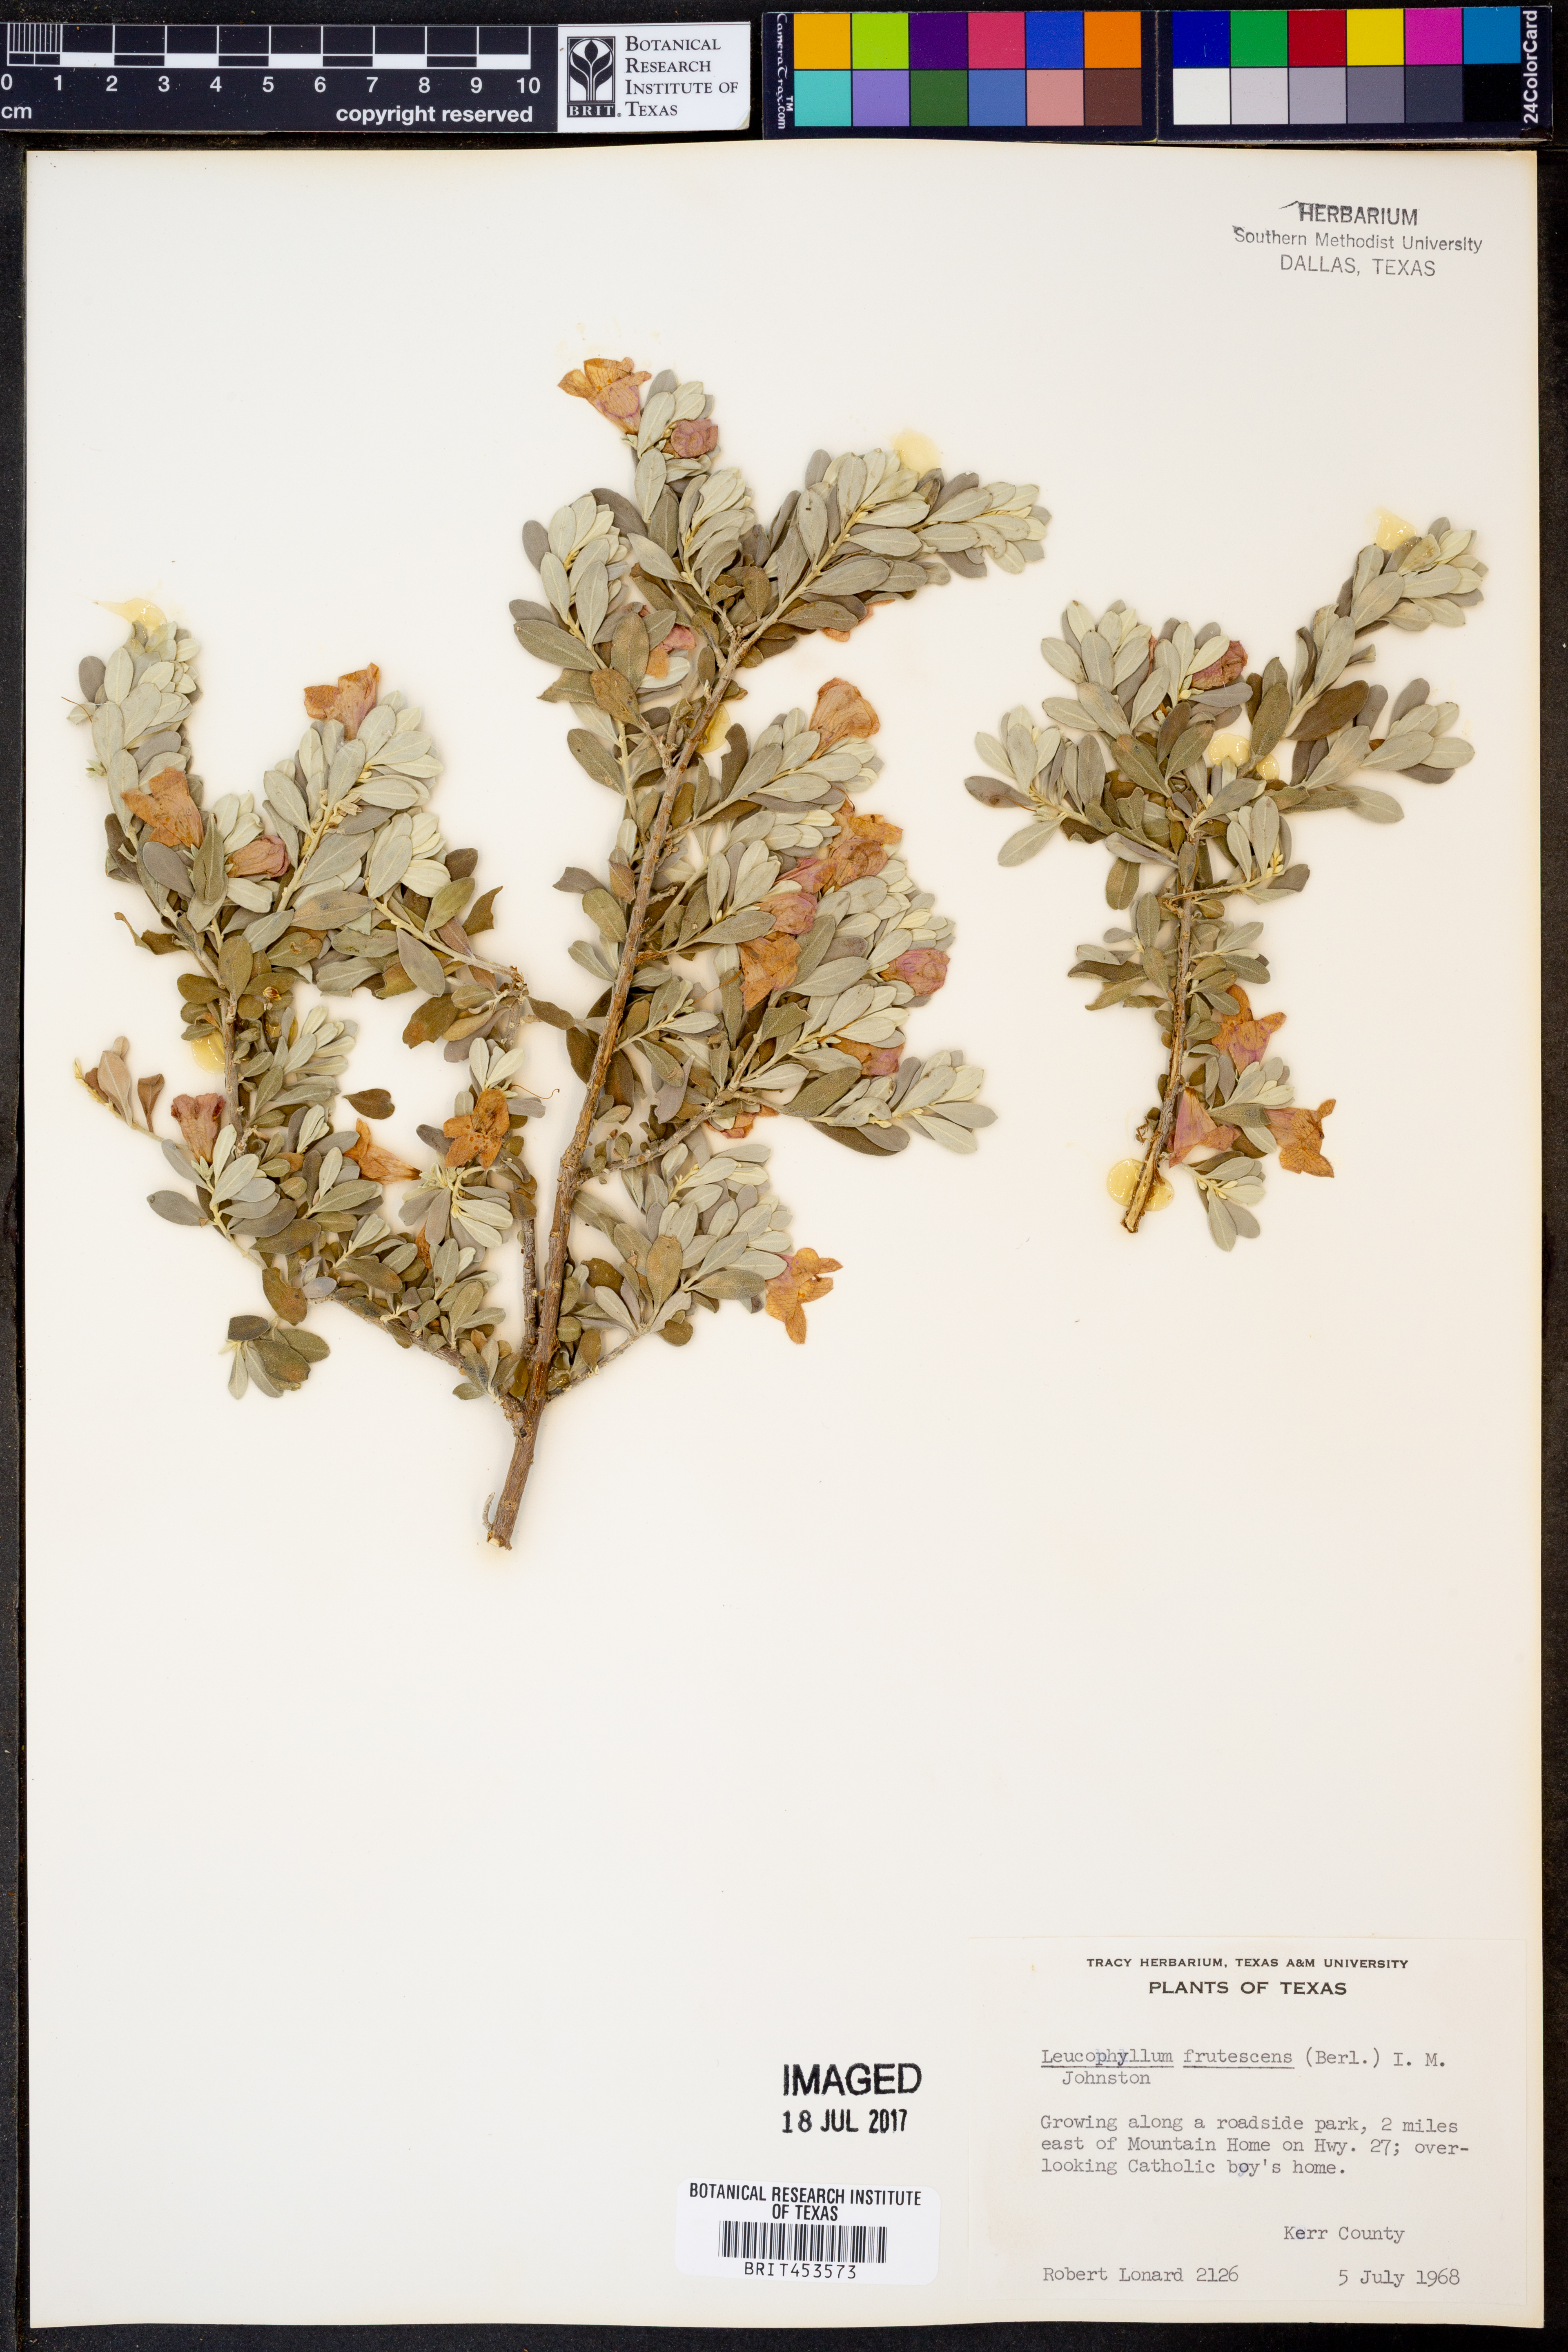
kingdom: Plantae
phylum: Tracheophyta
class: Magnoliopsida
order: Lamiales
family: Scrophulariaceae
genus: Leucophyllum
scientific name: Leucophyllum frutescens
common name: Texas silverleaf
